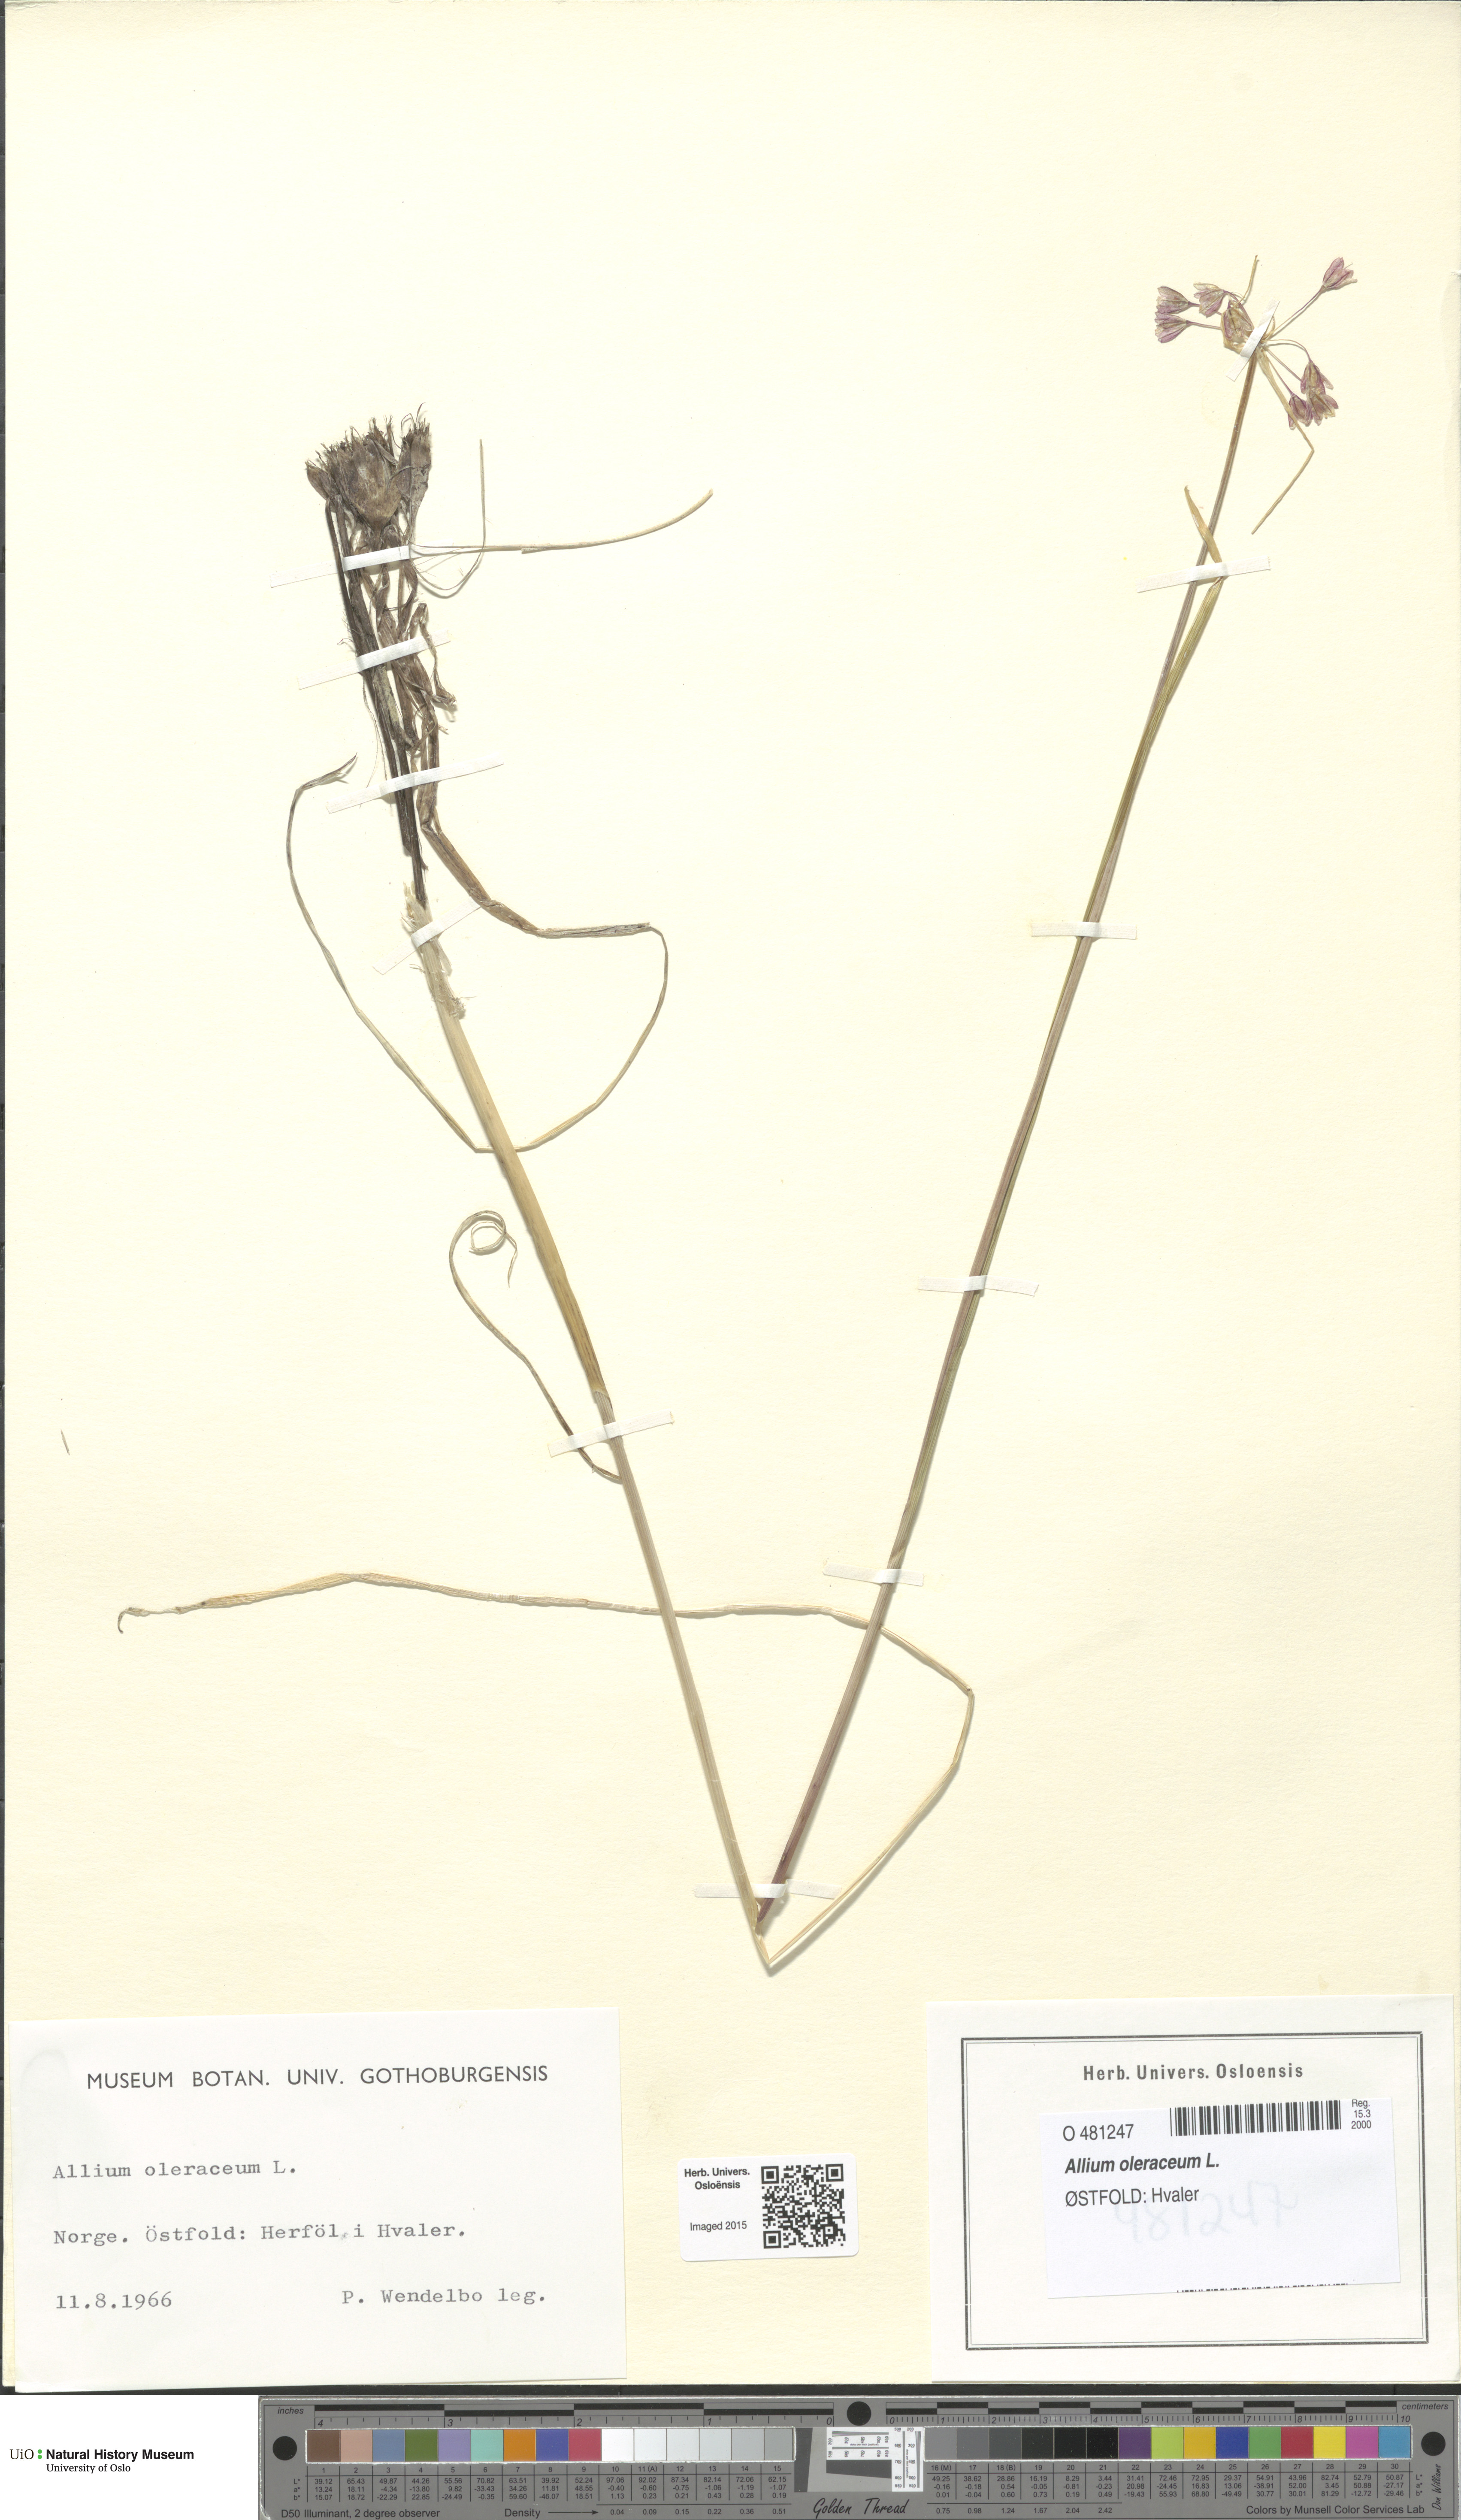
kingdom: Plantae
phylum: Tracheophyta
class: Liliopsida
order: Asparagales
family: Amaryllidaceae
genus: Allium
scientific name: Allium oleraceum
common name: Field garlic
